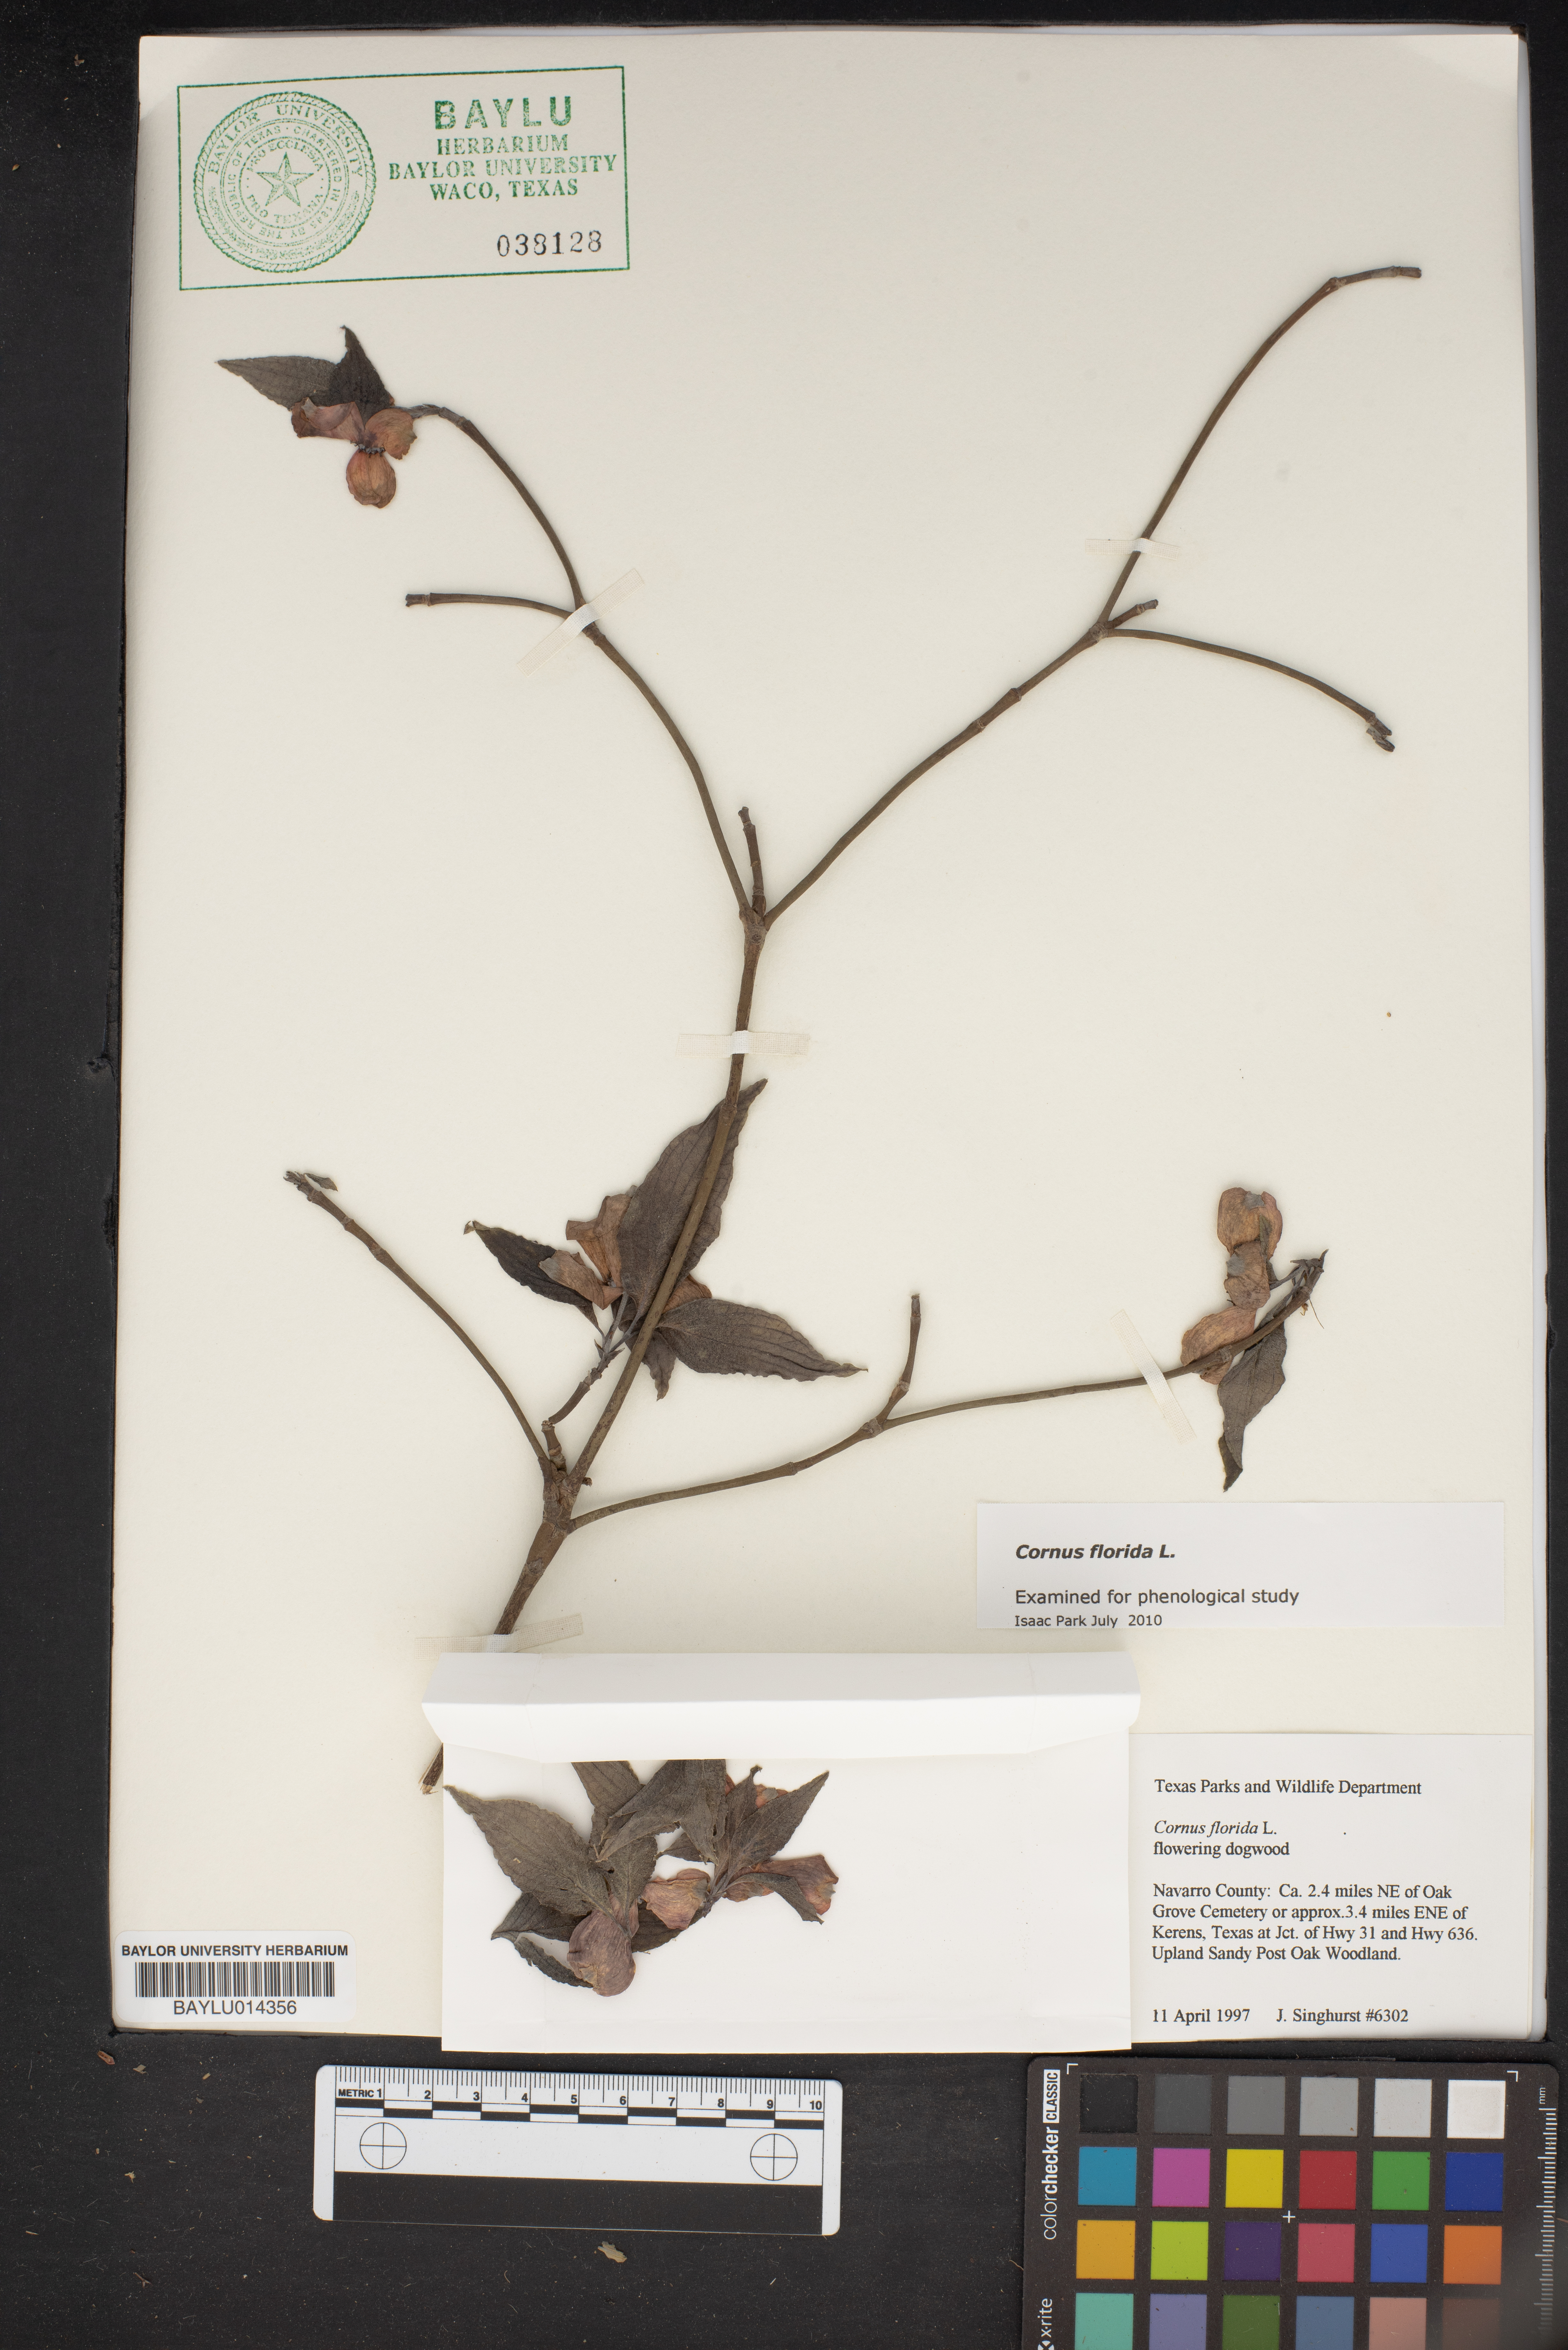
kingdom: Plantae
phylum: Tracheophyta
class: Magnoliopsida
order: Cornales
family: Cornaceae
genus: Cornus
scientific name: Cornus florida
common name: Flowering dogwood
